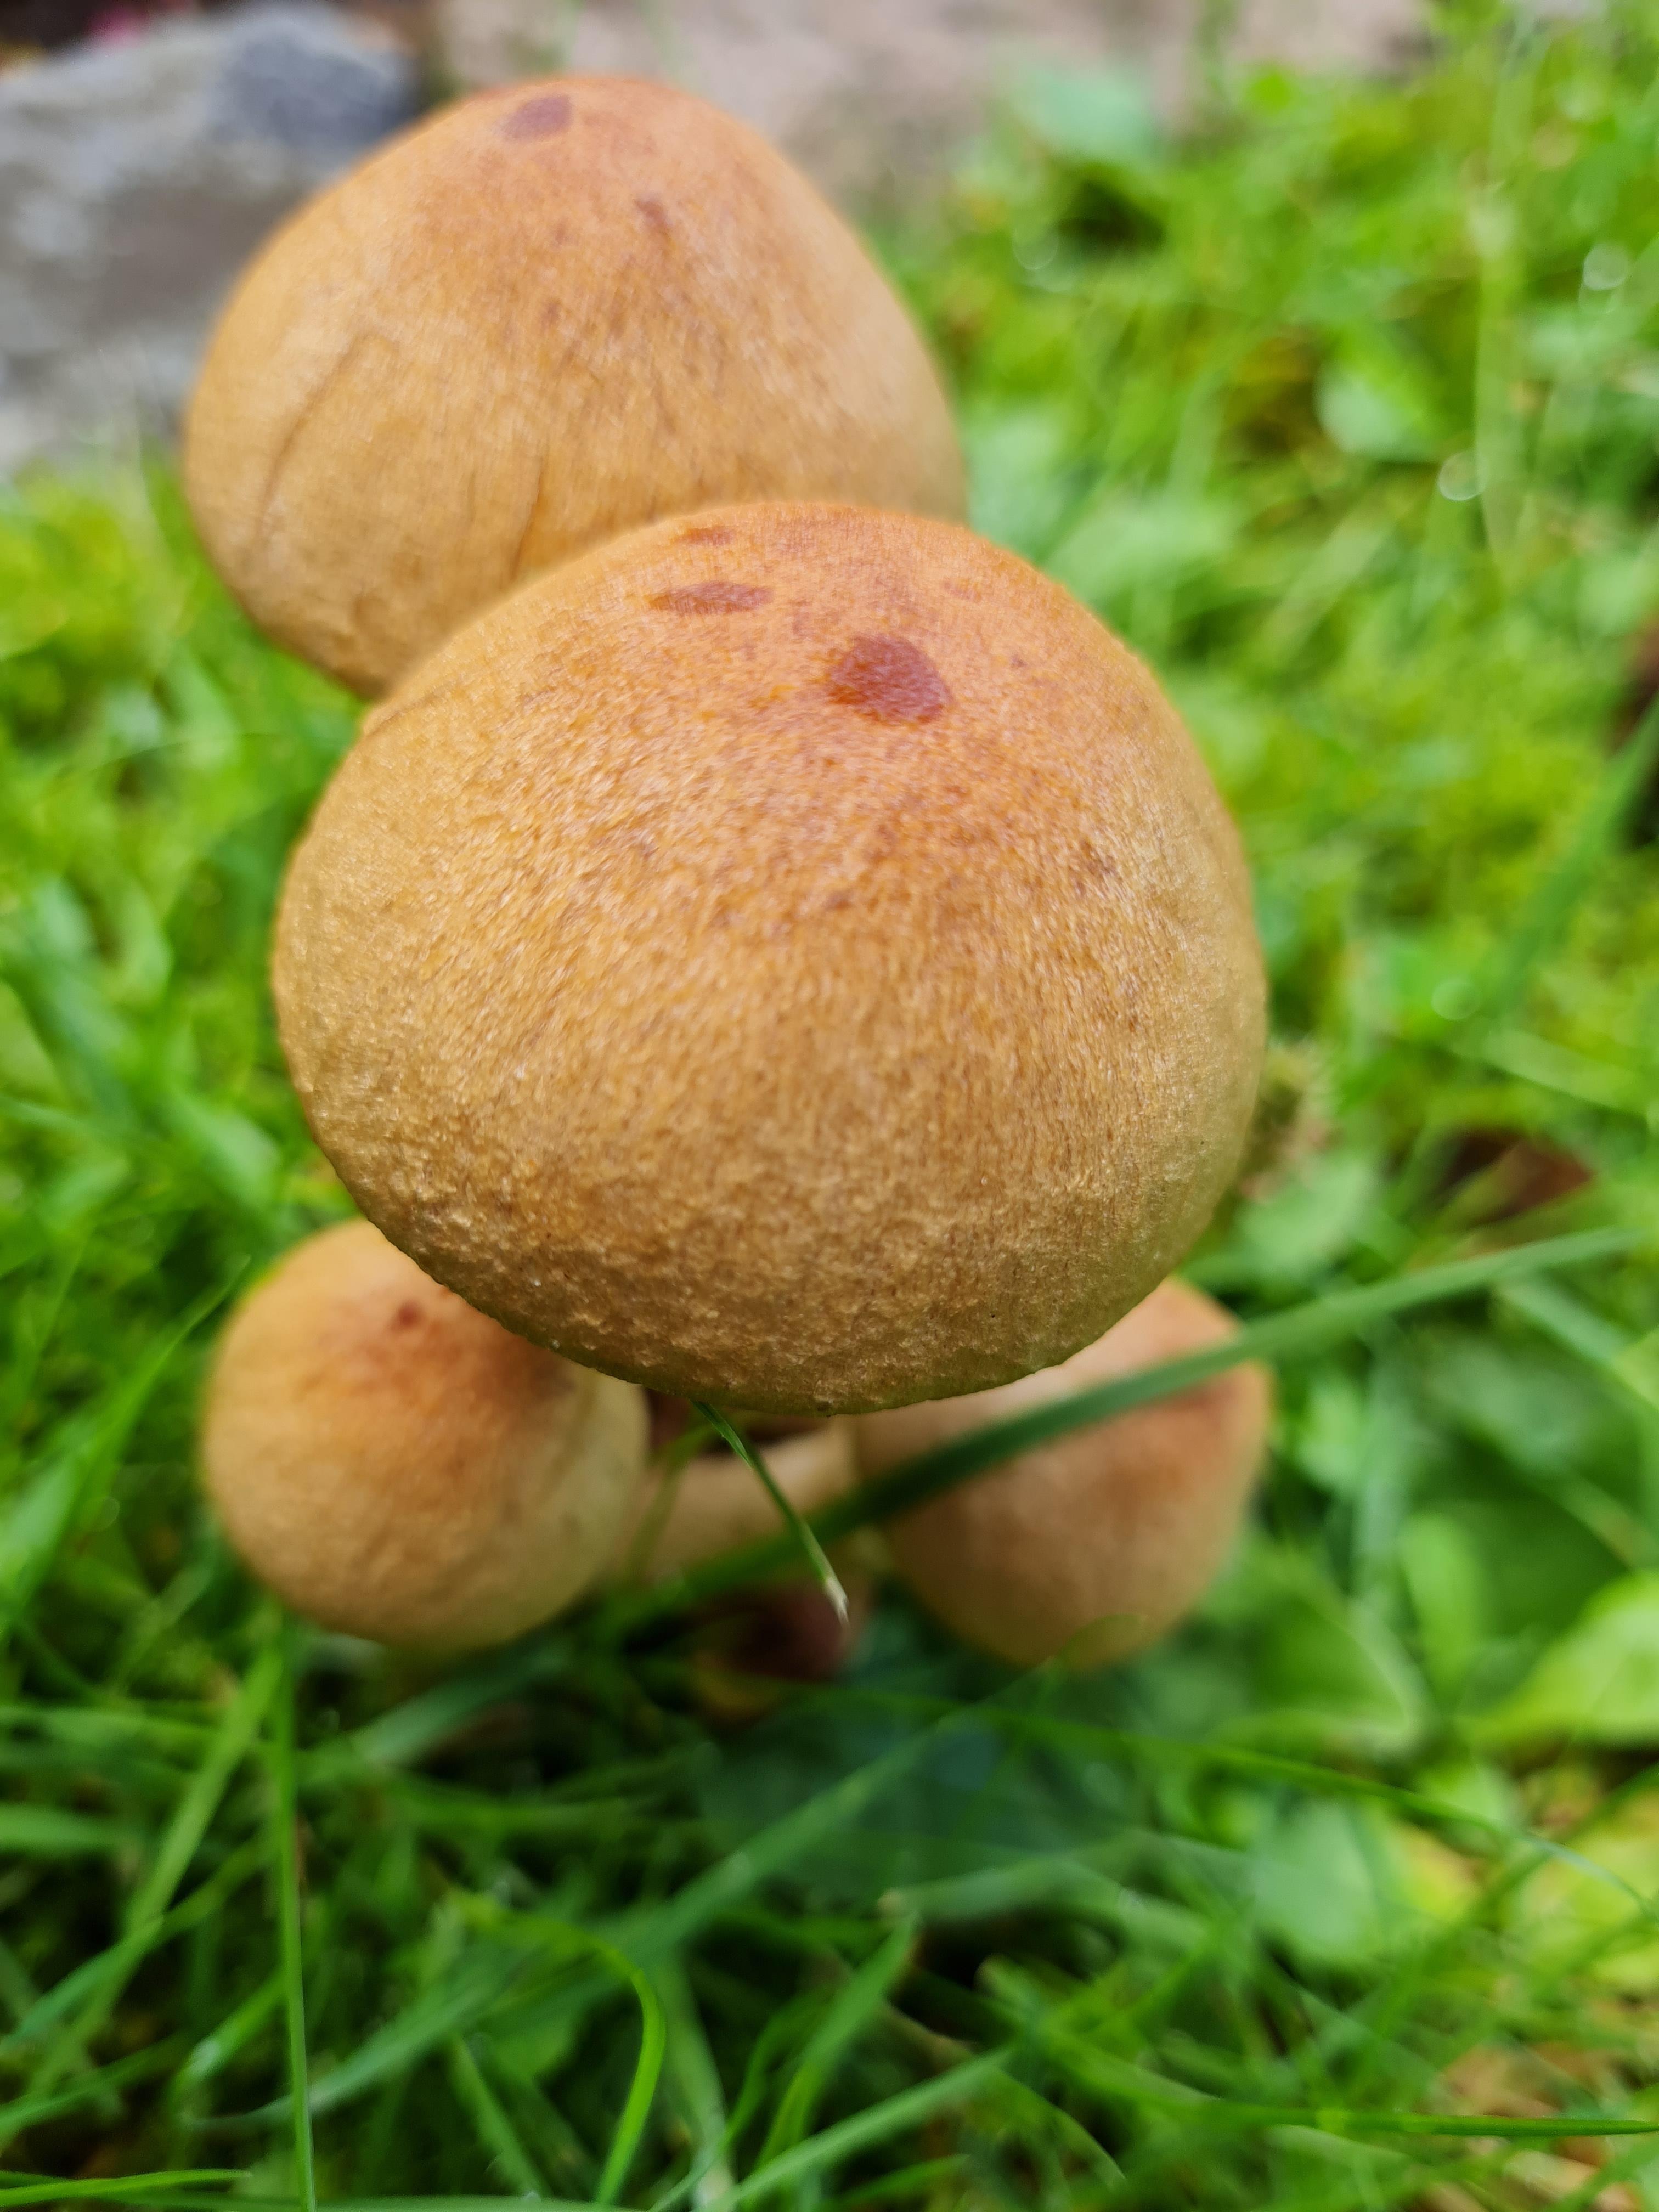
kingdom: Fungi
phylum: Basidiomycota
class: Agaricomycetes
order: Agaricales
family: Psathyrellaceae
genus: Lacrymaria
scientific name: Lacrymaria lacrymabunda
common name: grædende mørkhat
